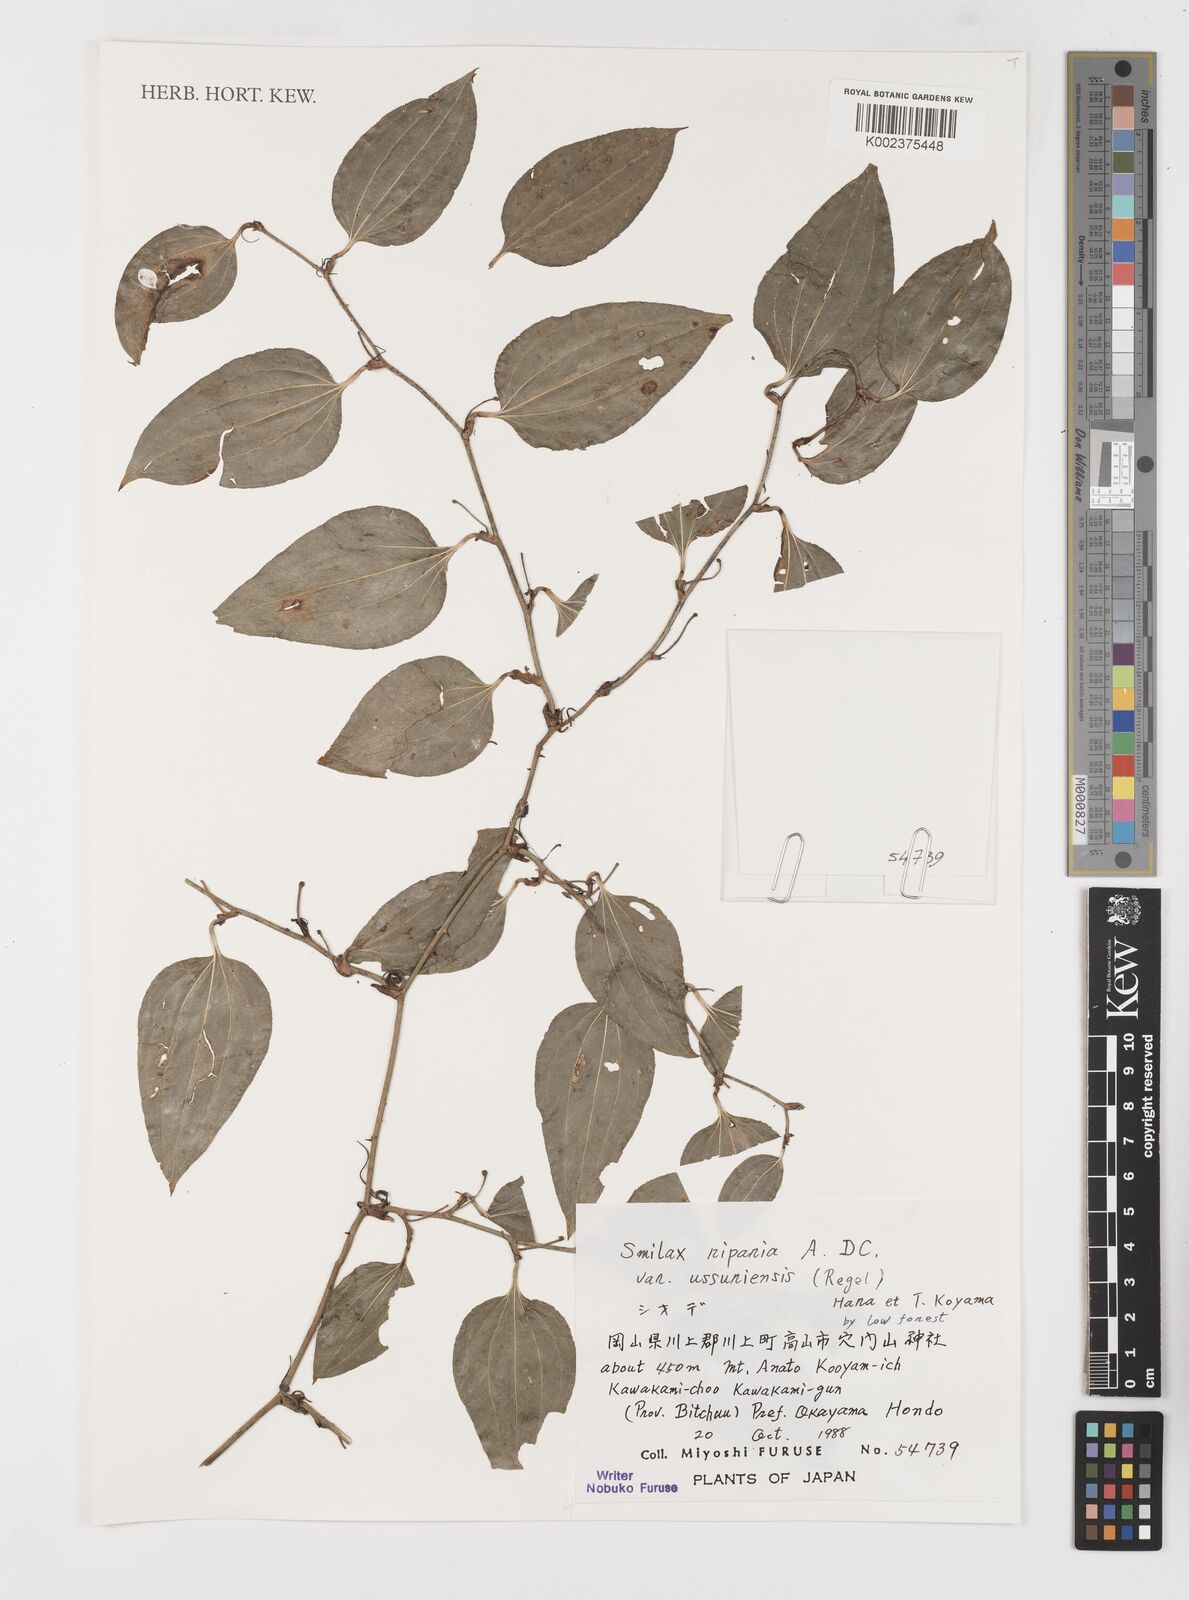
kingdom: Plantae
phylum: Tracheophyta
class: Liliopsida
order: Liliales
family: Smilacaceae
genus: Smilax
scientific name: Smilax riparia
